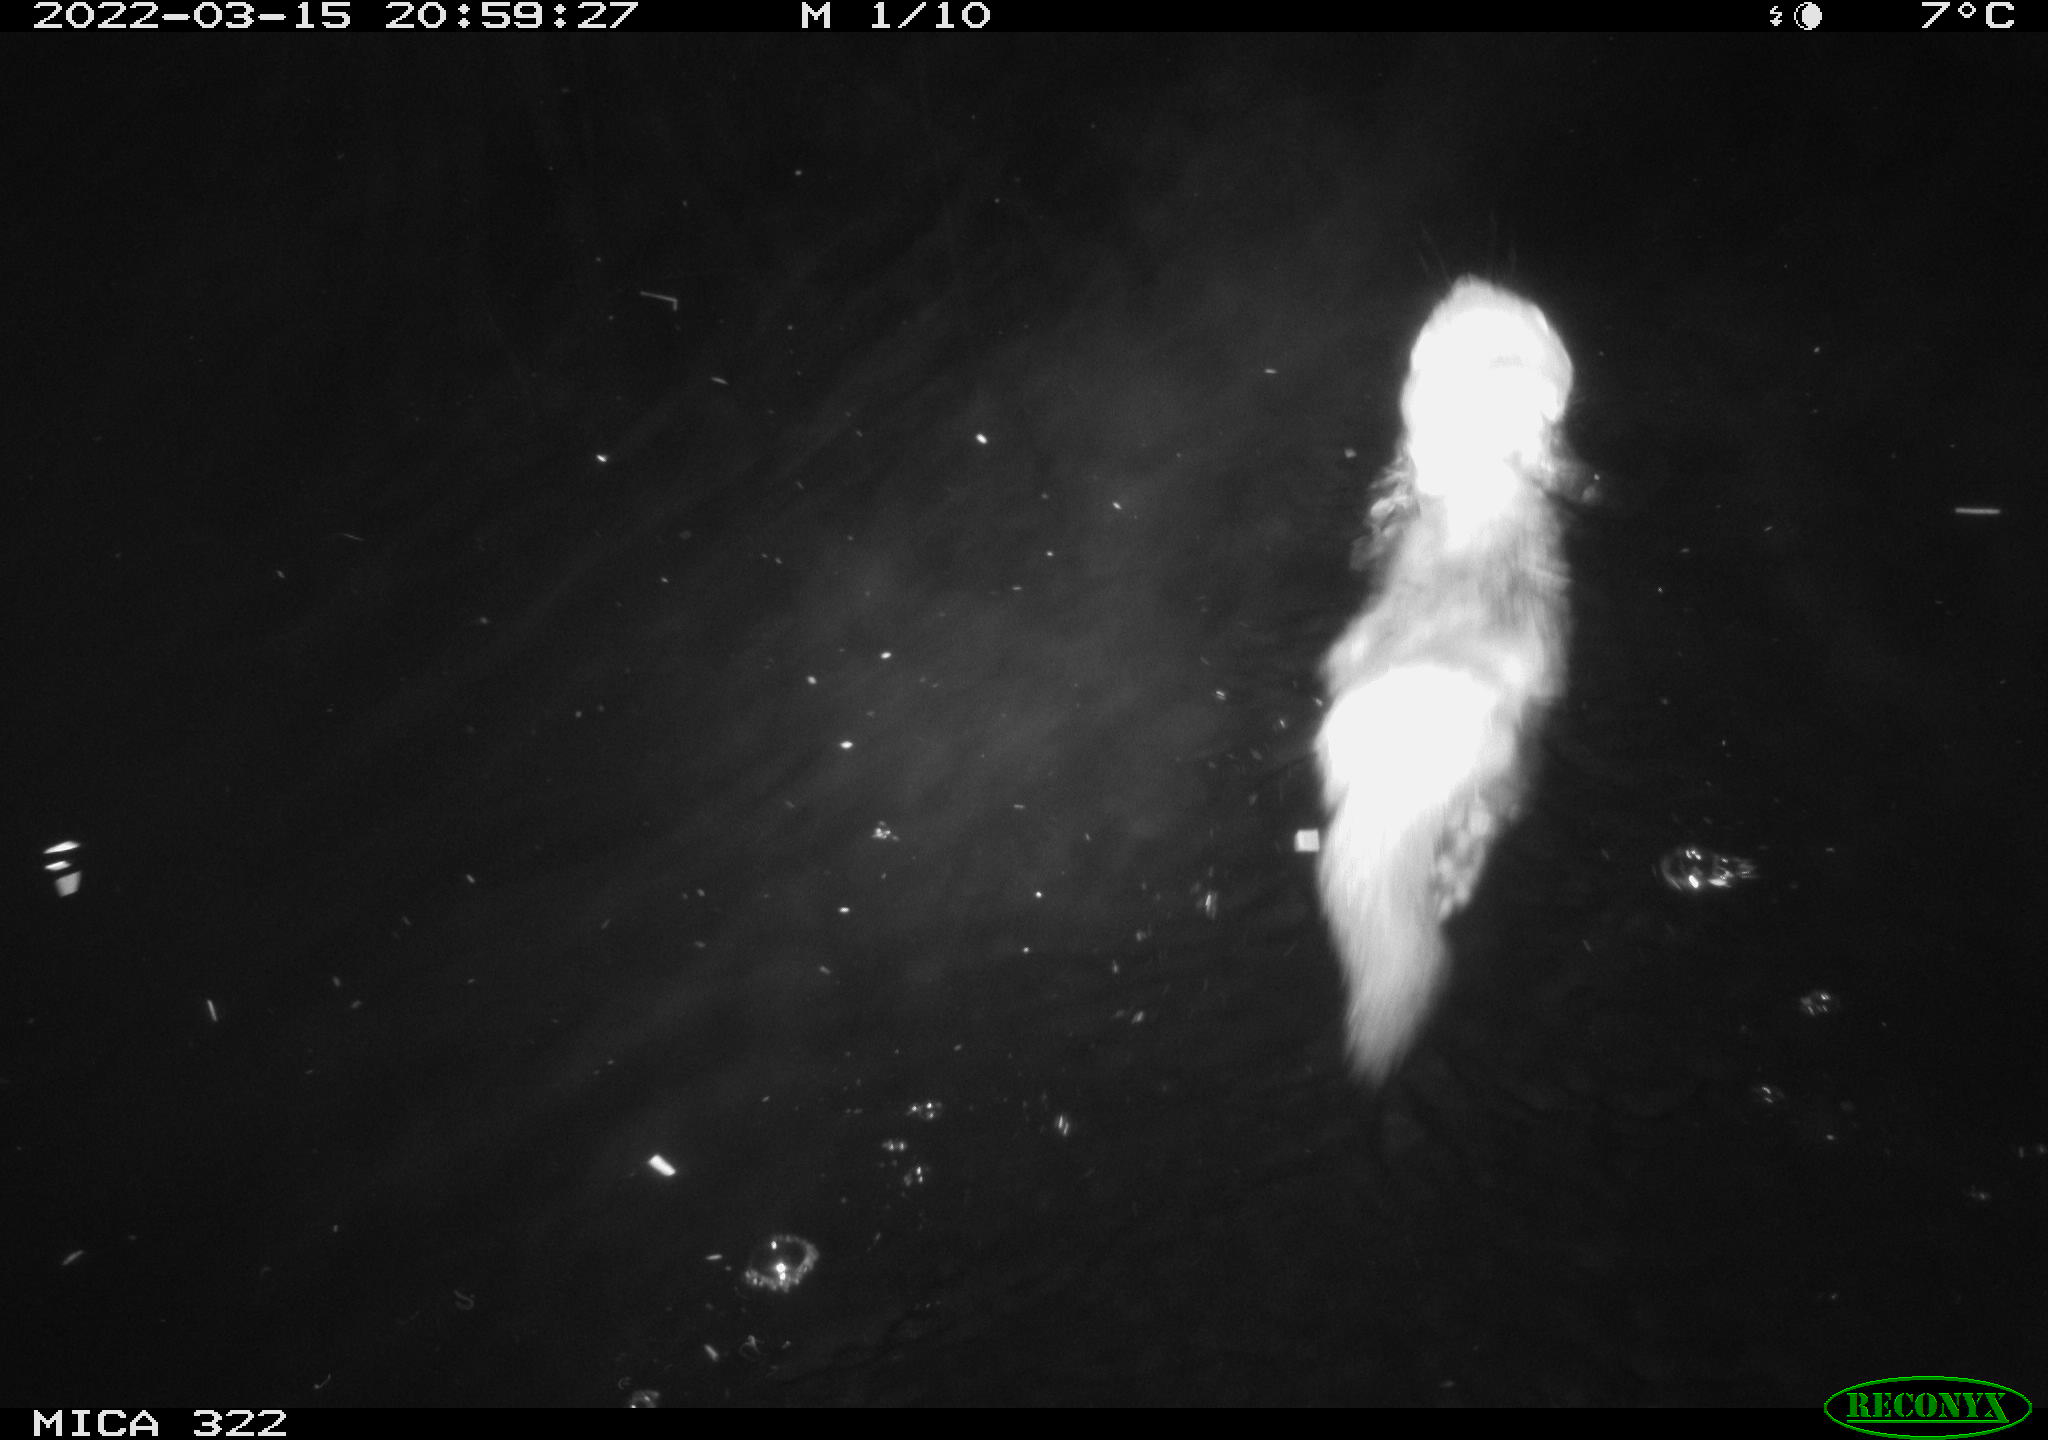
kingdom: Animalia
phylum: Chordata
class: Mammalia
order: Carnivora
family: Mustelidae
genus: Mustela
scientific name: Mustela putorius
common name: European polecat
